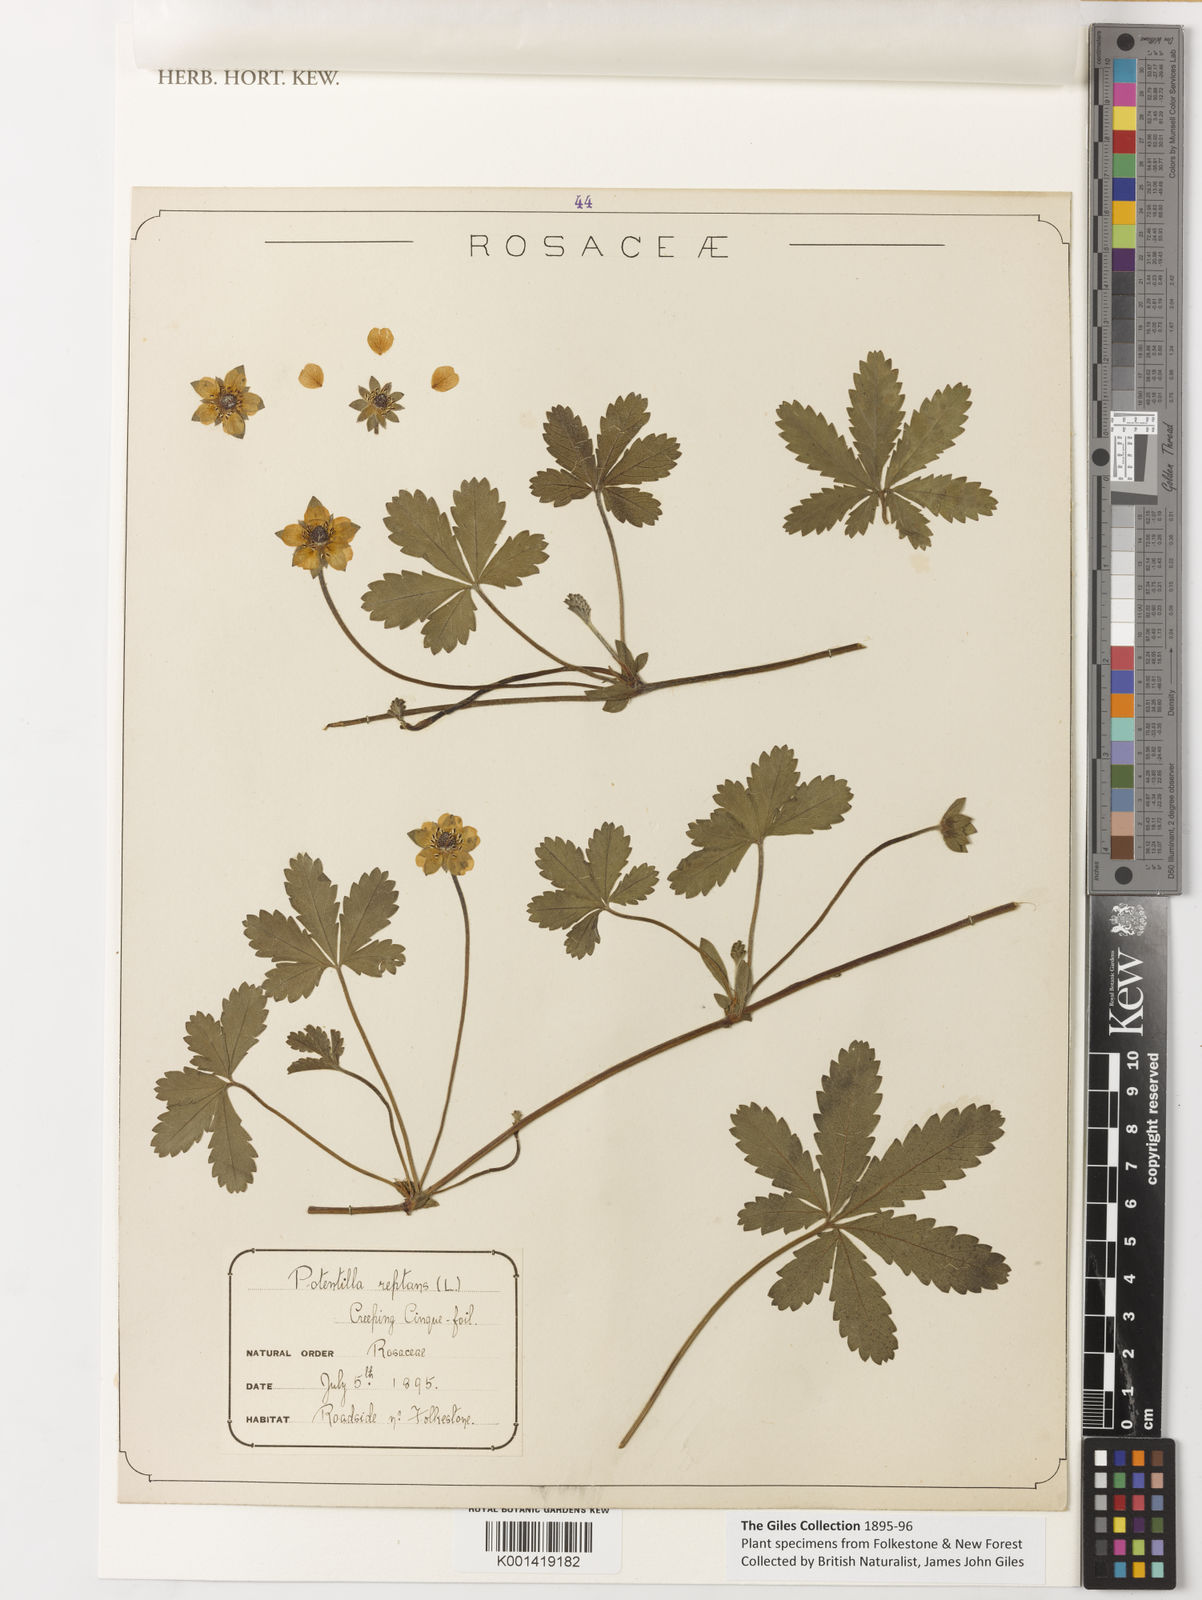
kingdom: Plantae
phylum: Tracheophyta
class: Magnoliopsida
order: Rosales
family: Rosaceae
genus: Potentilla
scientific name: Potentilla reptans
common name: Creeping cinquefoil
